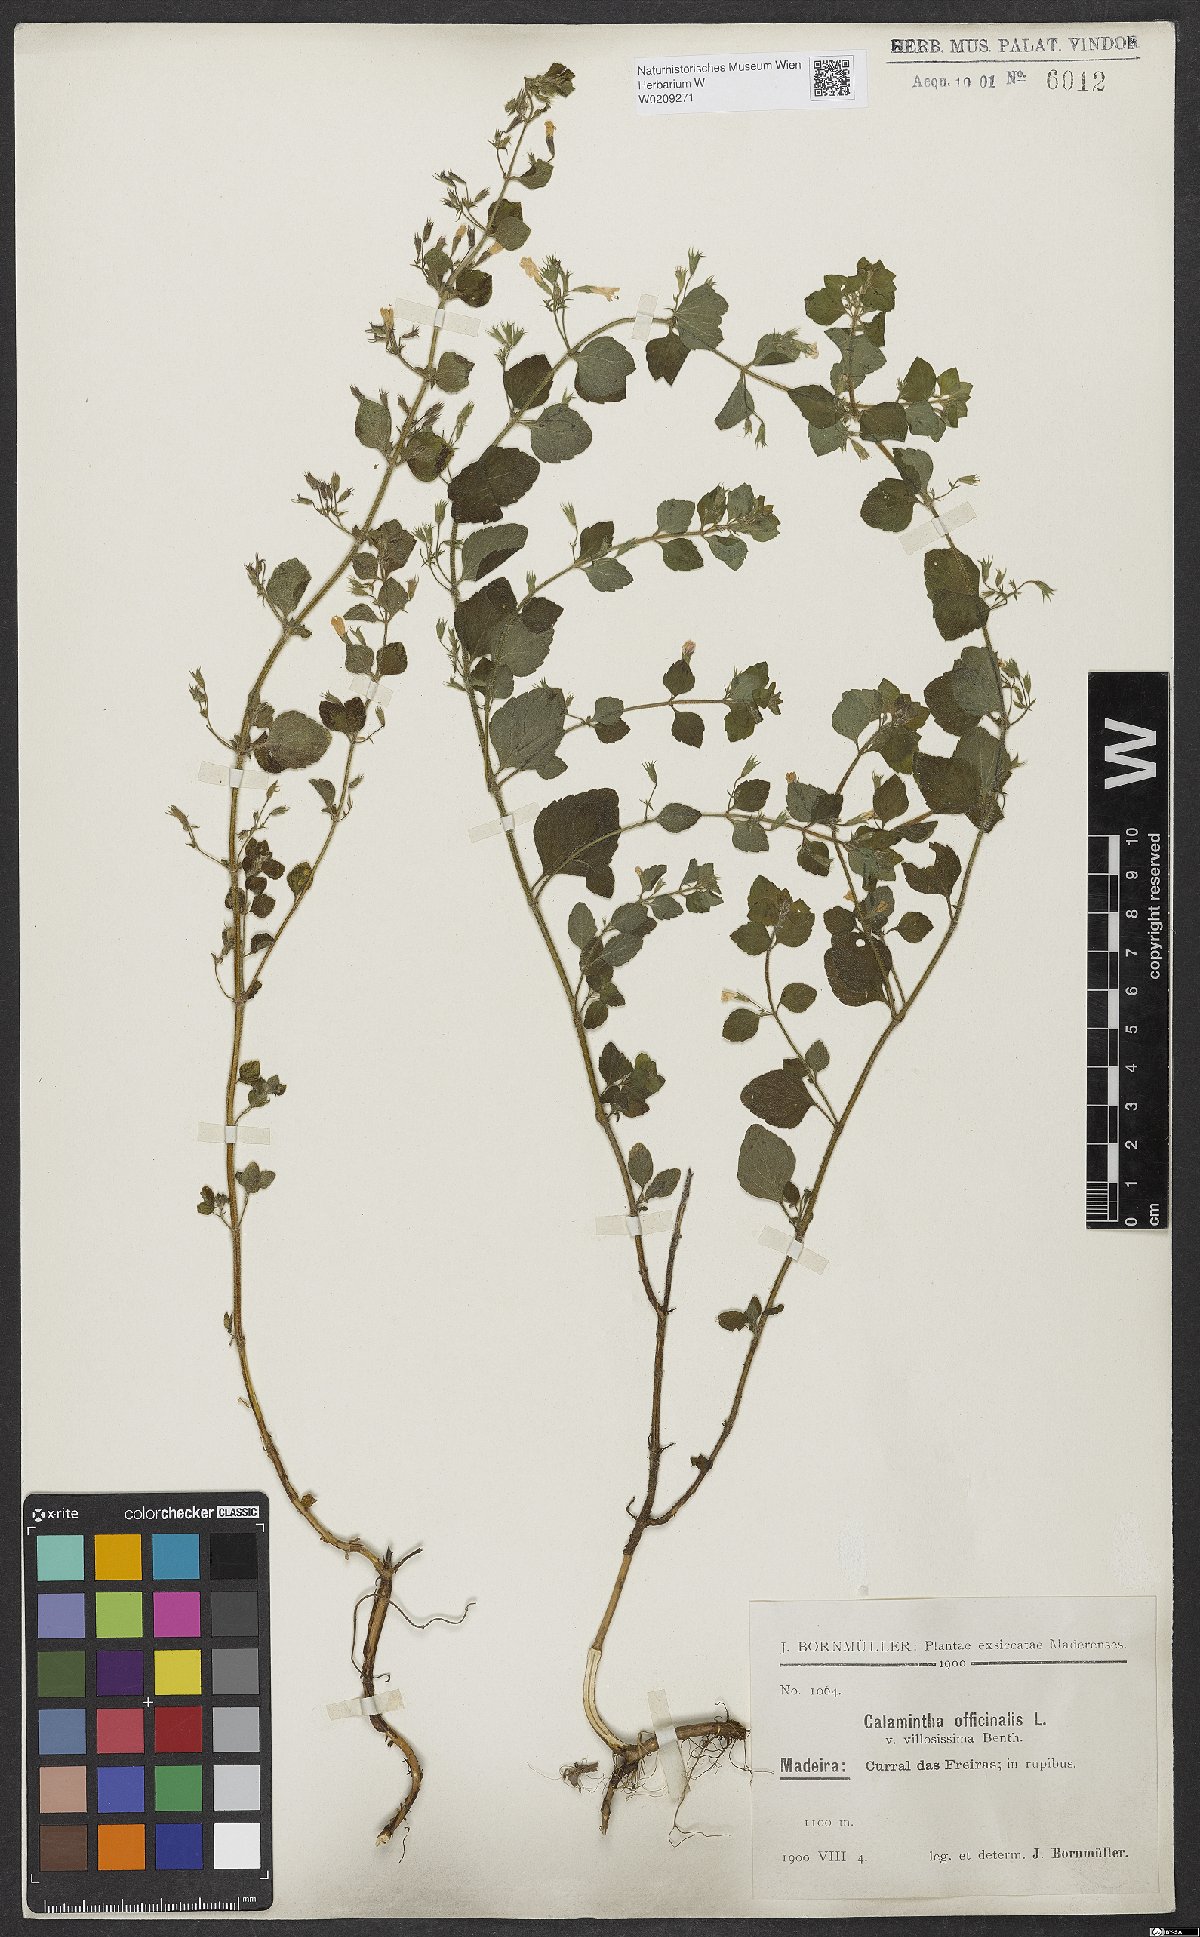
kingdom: Plantae
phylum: Tracheophyta
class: Magnoliopsida
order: Lamiales
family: Lamiaceae
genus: Clinopodium
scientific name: Clinopodium nepeta
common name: Lesser calamint
